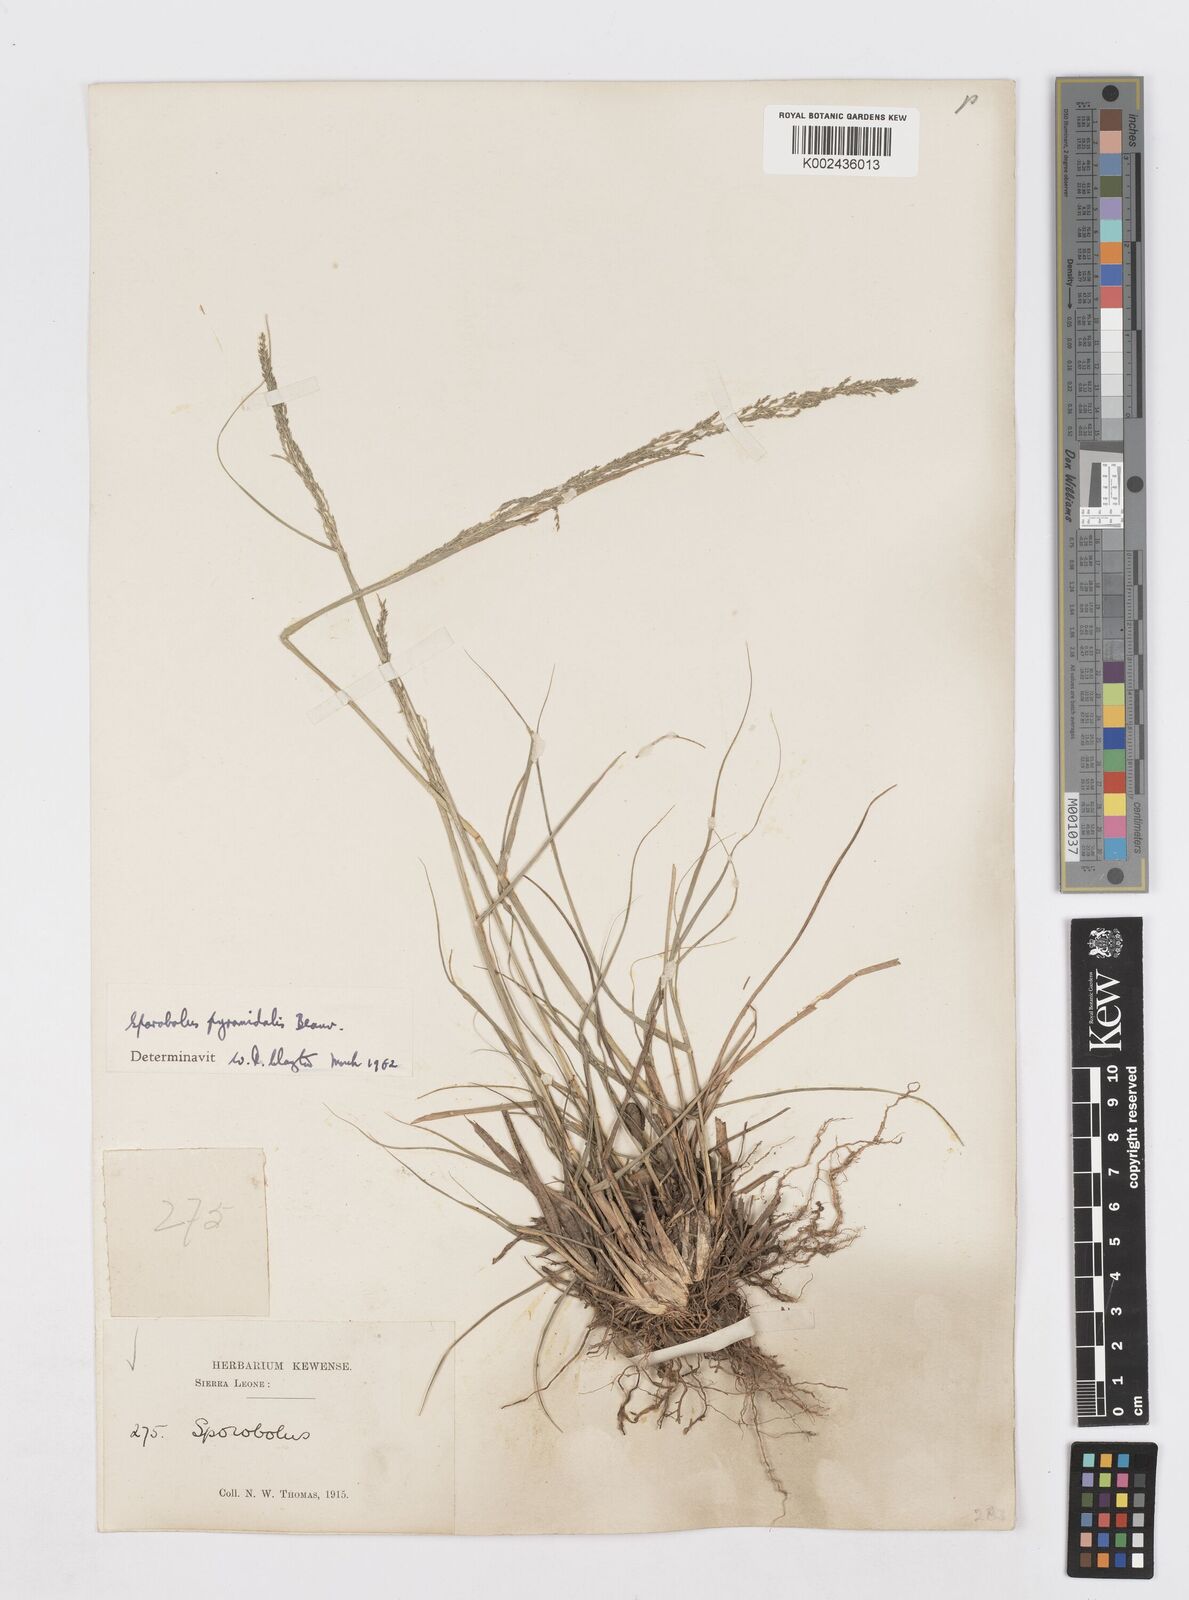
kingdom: Plantae
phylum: Tracheophyta
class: Liliopsida
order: Poales
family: Poaceae
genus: Sporobolus
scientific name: Sporobolus pyramidalis
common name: West indian dropseed
